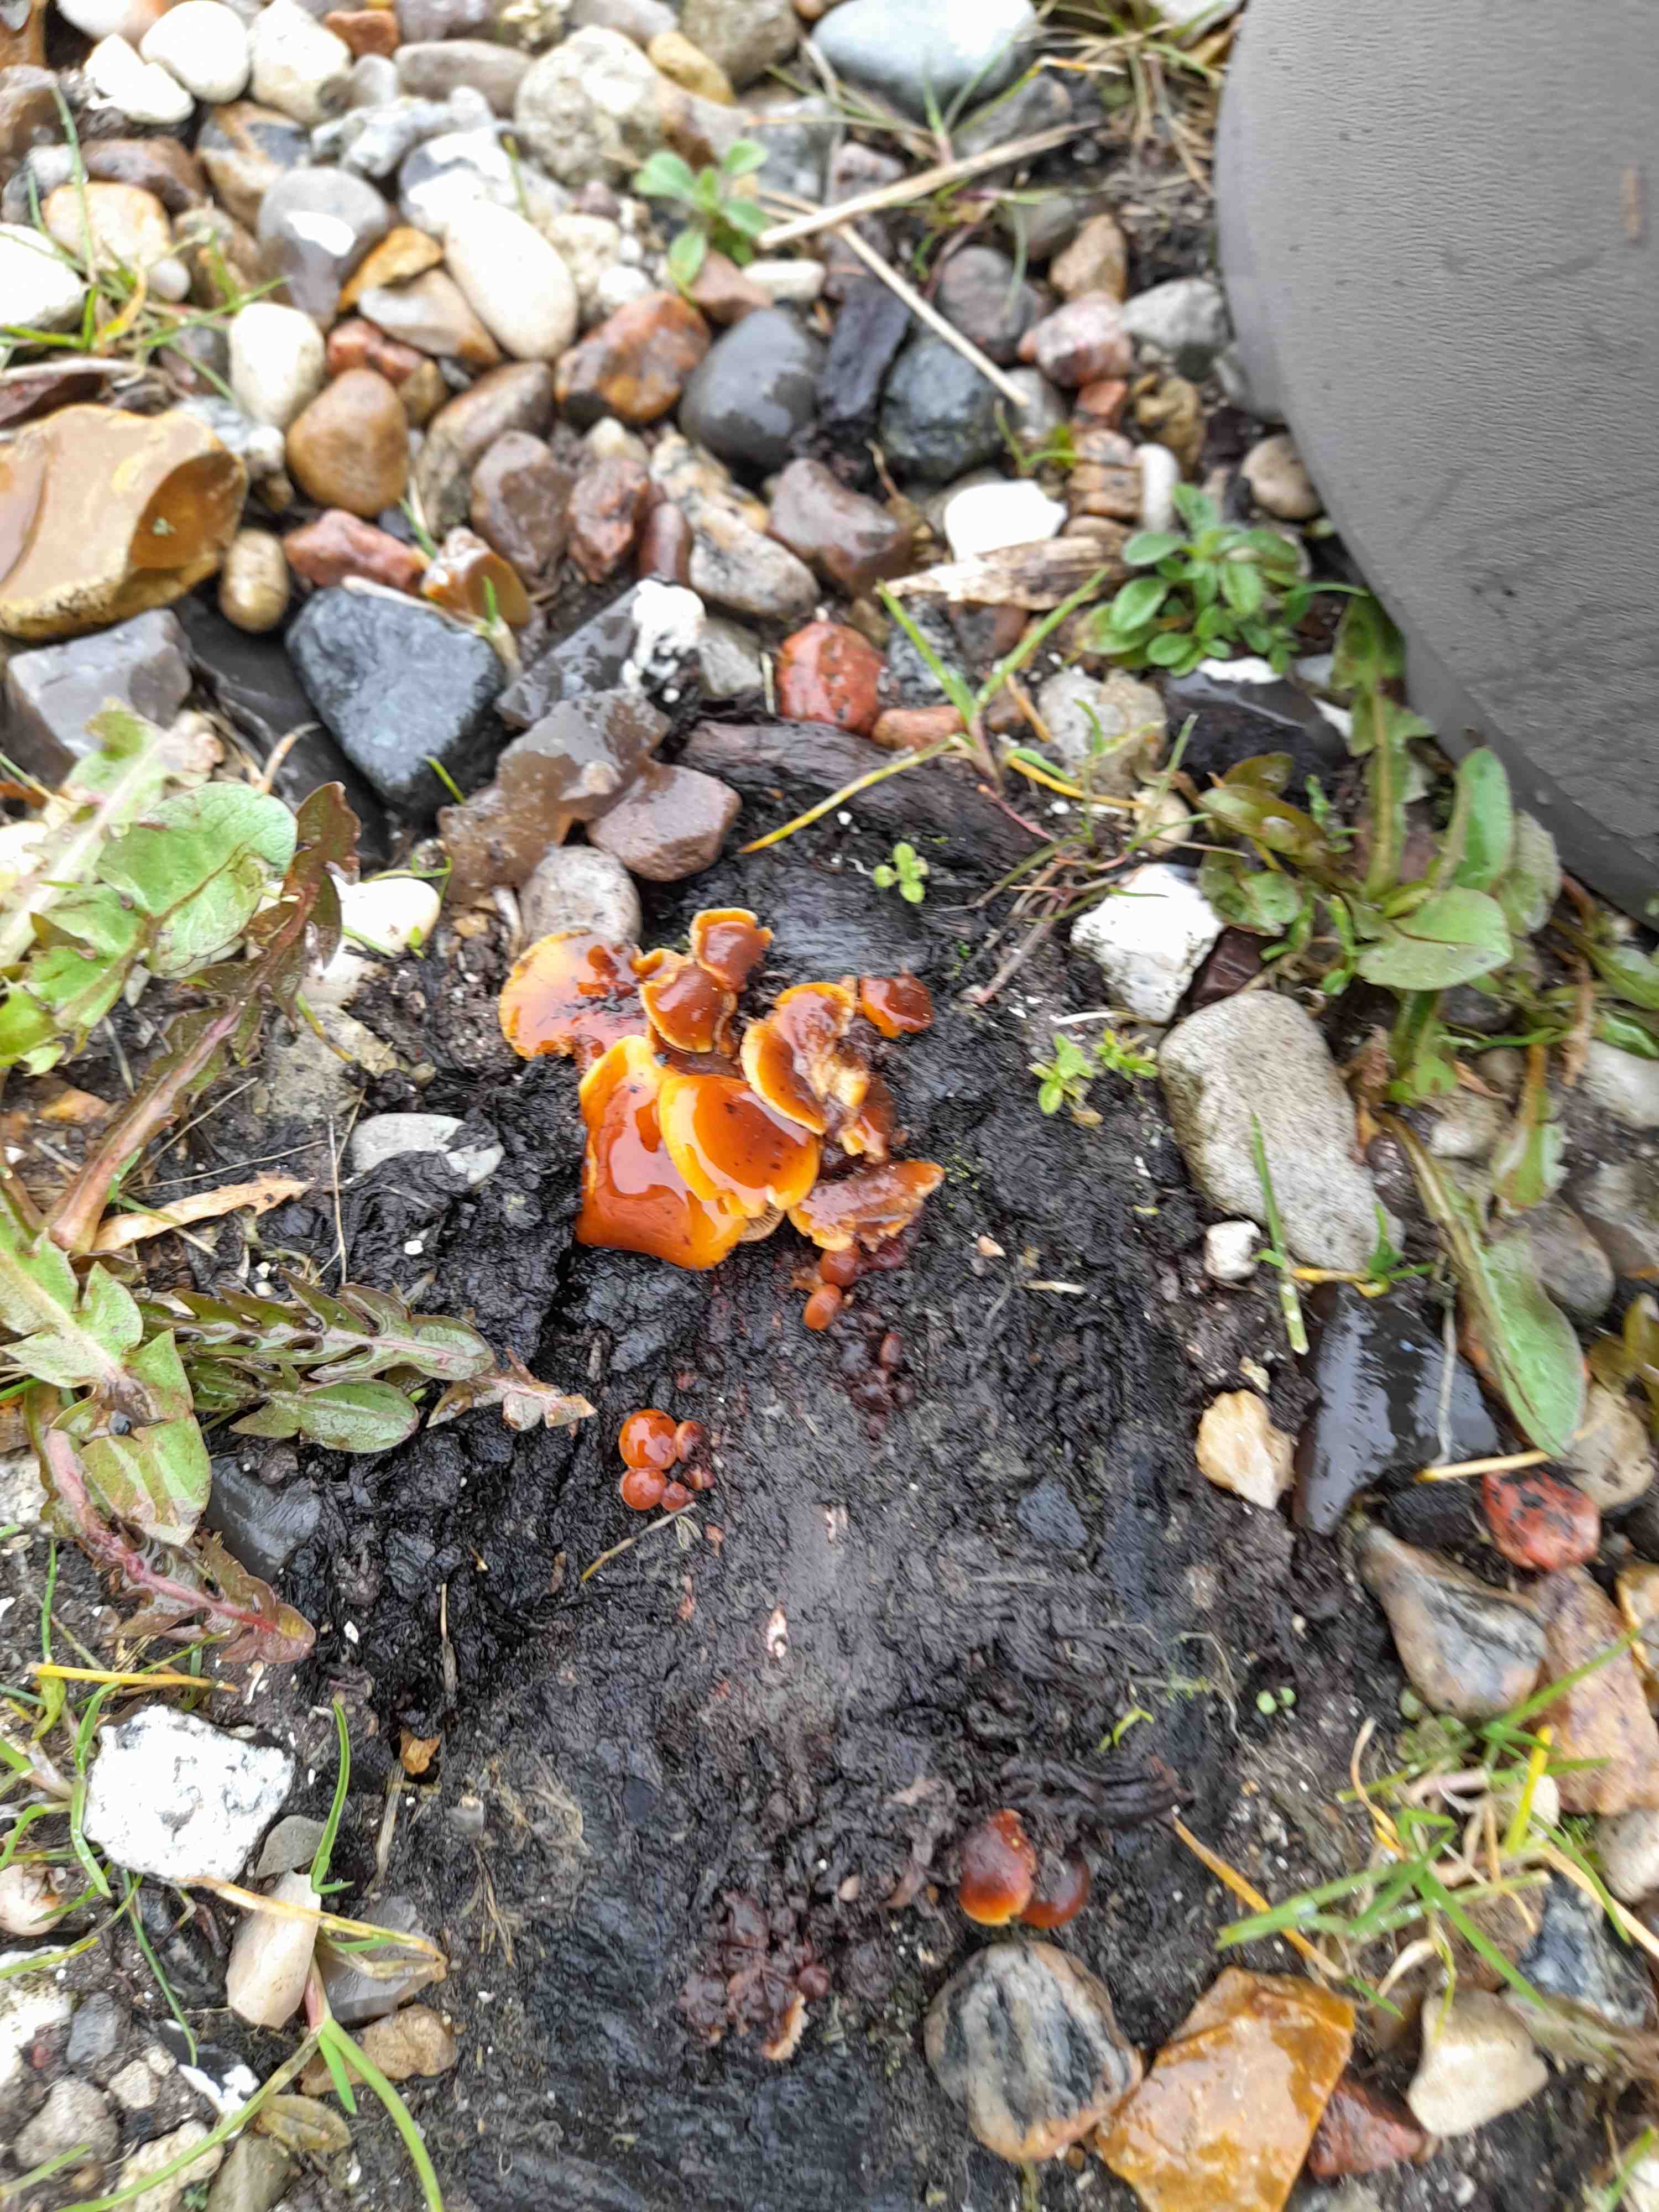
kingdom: Fungi
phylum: Basidiomycota
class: Agaricomycetes
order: Agaricales
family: Physalacriaceae
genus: Flammulina
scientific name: Flammulina
